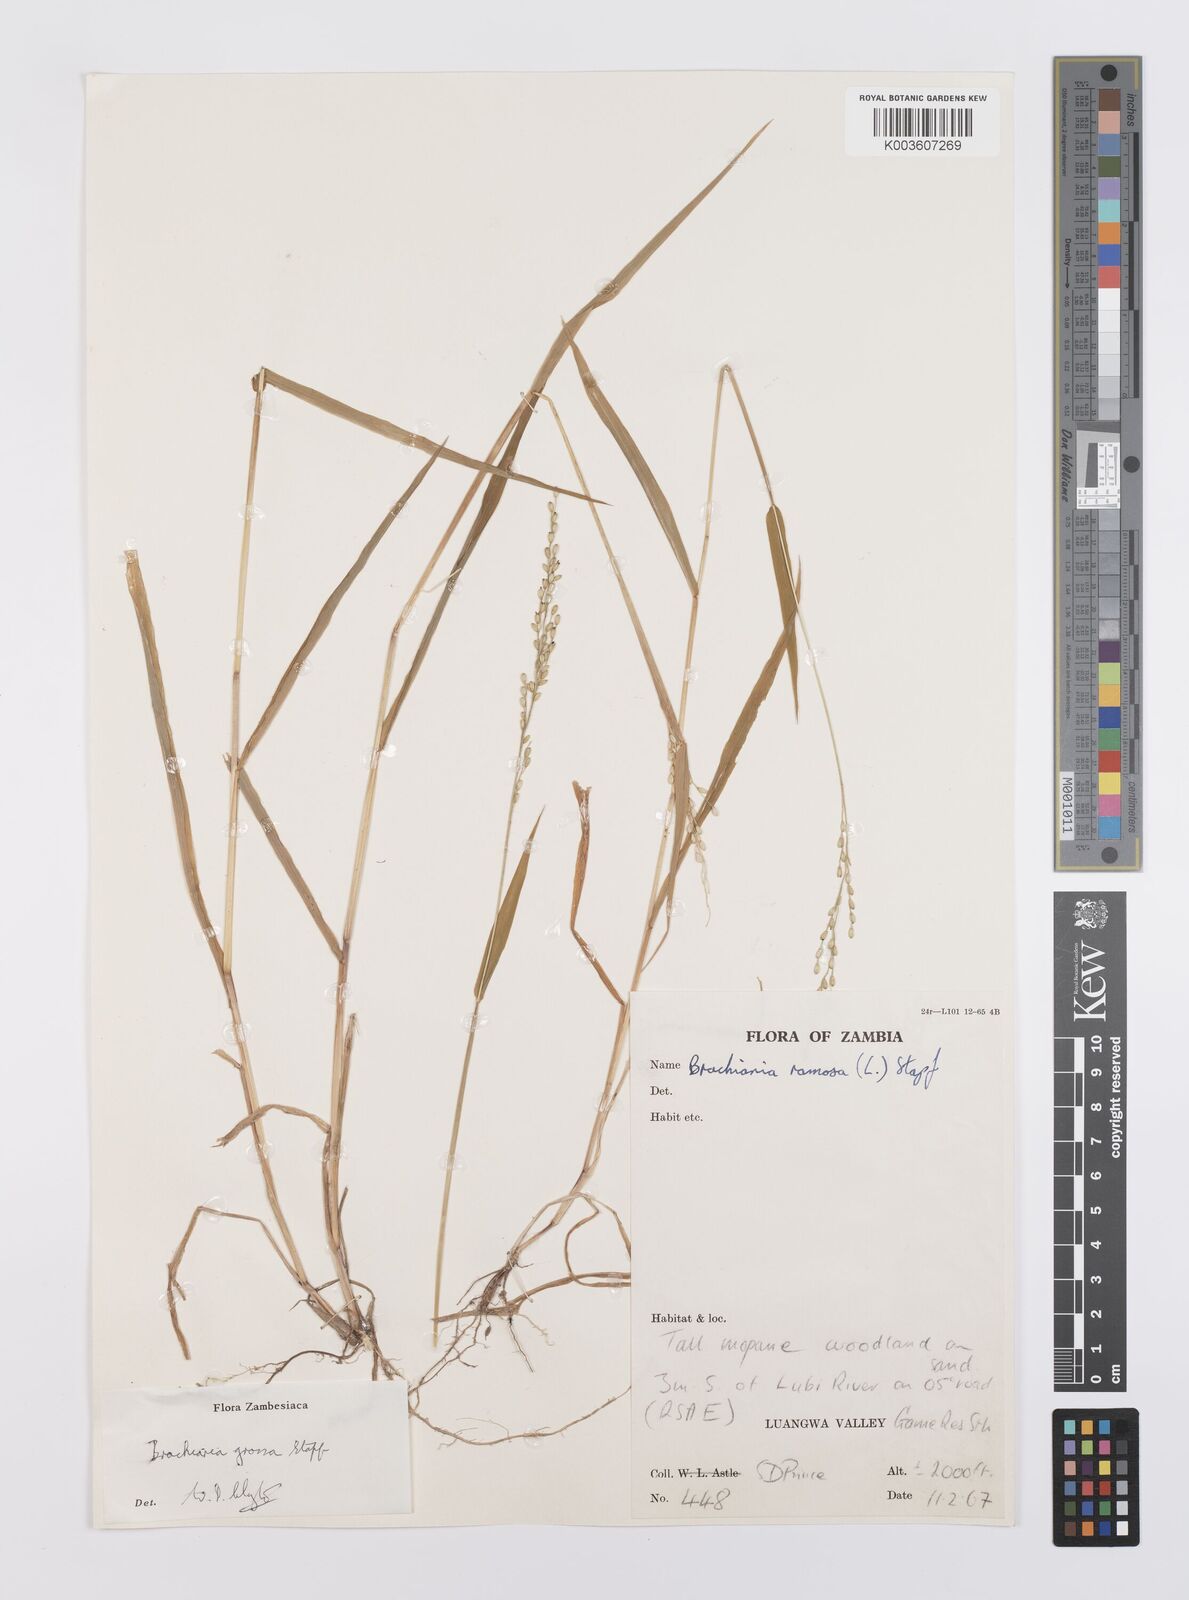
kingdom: Plantae
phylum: Tracheophyta
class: Liliopsida
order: Poales
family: Poaceae
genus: Urochloa
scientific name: Urochloa Brachiaria grossa
